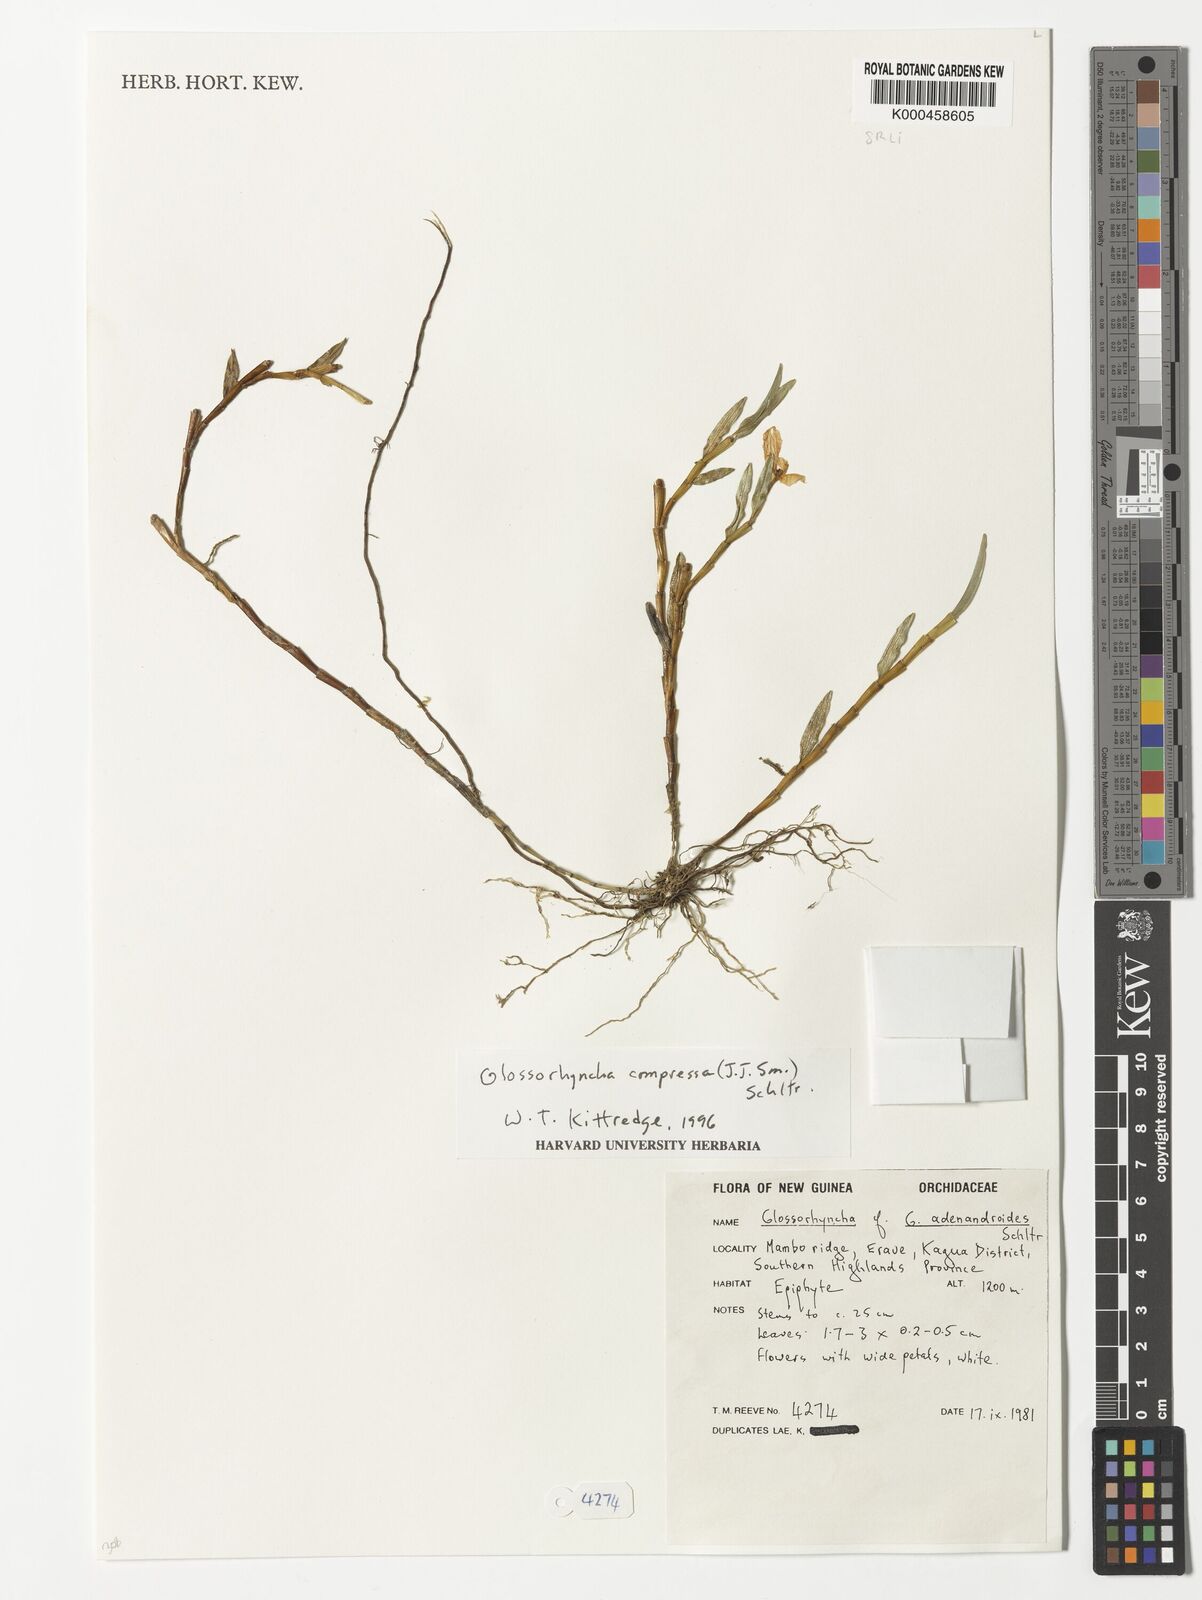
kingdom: Plantae
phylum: Tracheophyta
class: Liliopsida
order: Asparagales
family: Orchidaceae
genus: Glomera
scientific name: Glomera compressa
